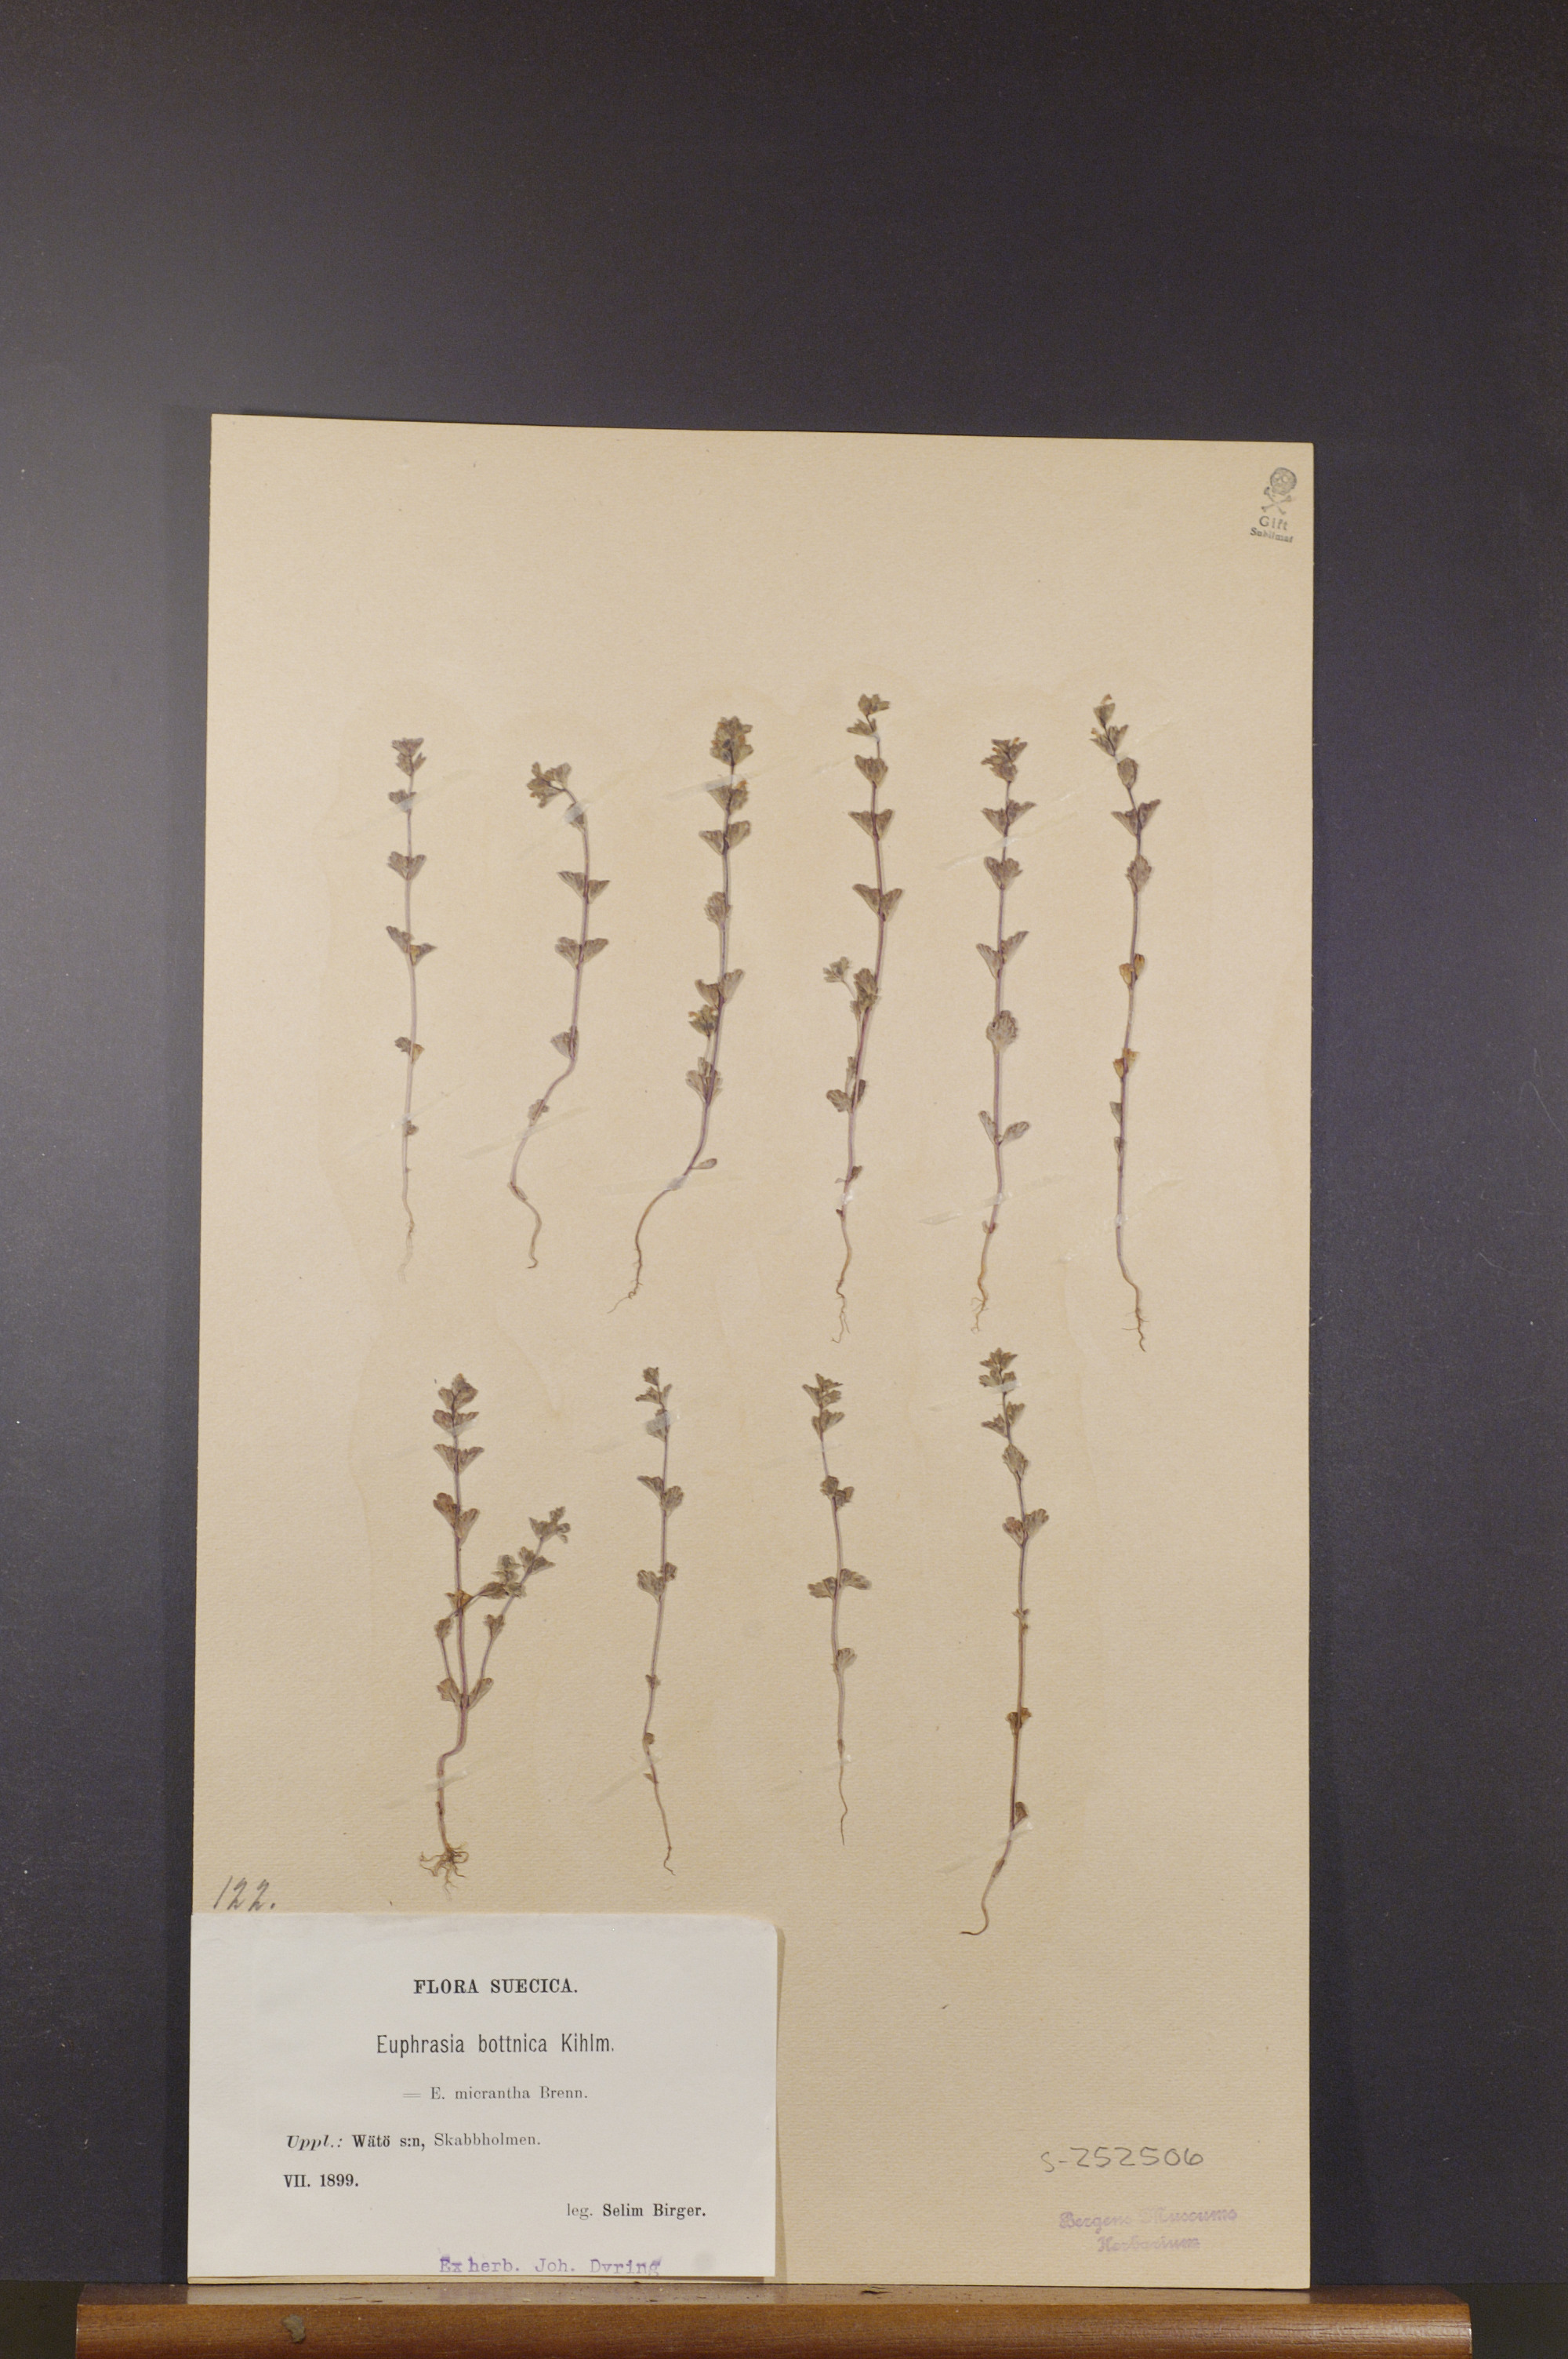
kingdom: Plantae
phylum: Tracheophyta
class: Magnoliopsida
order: Lamiales
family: Orobanchaceae
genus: Euphrasia
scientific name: Euphrasia bottnica
